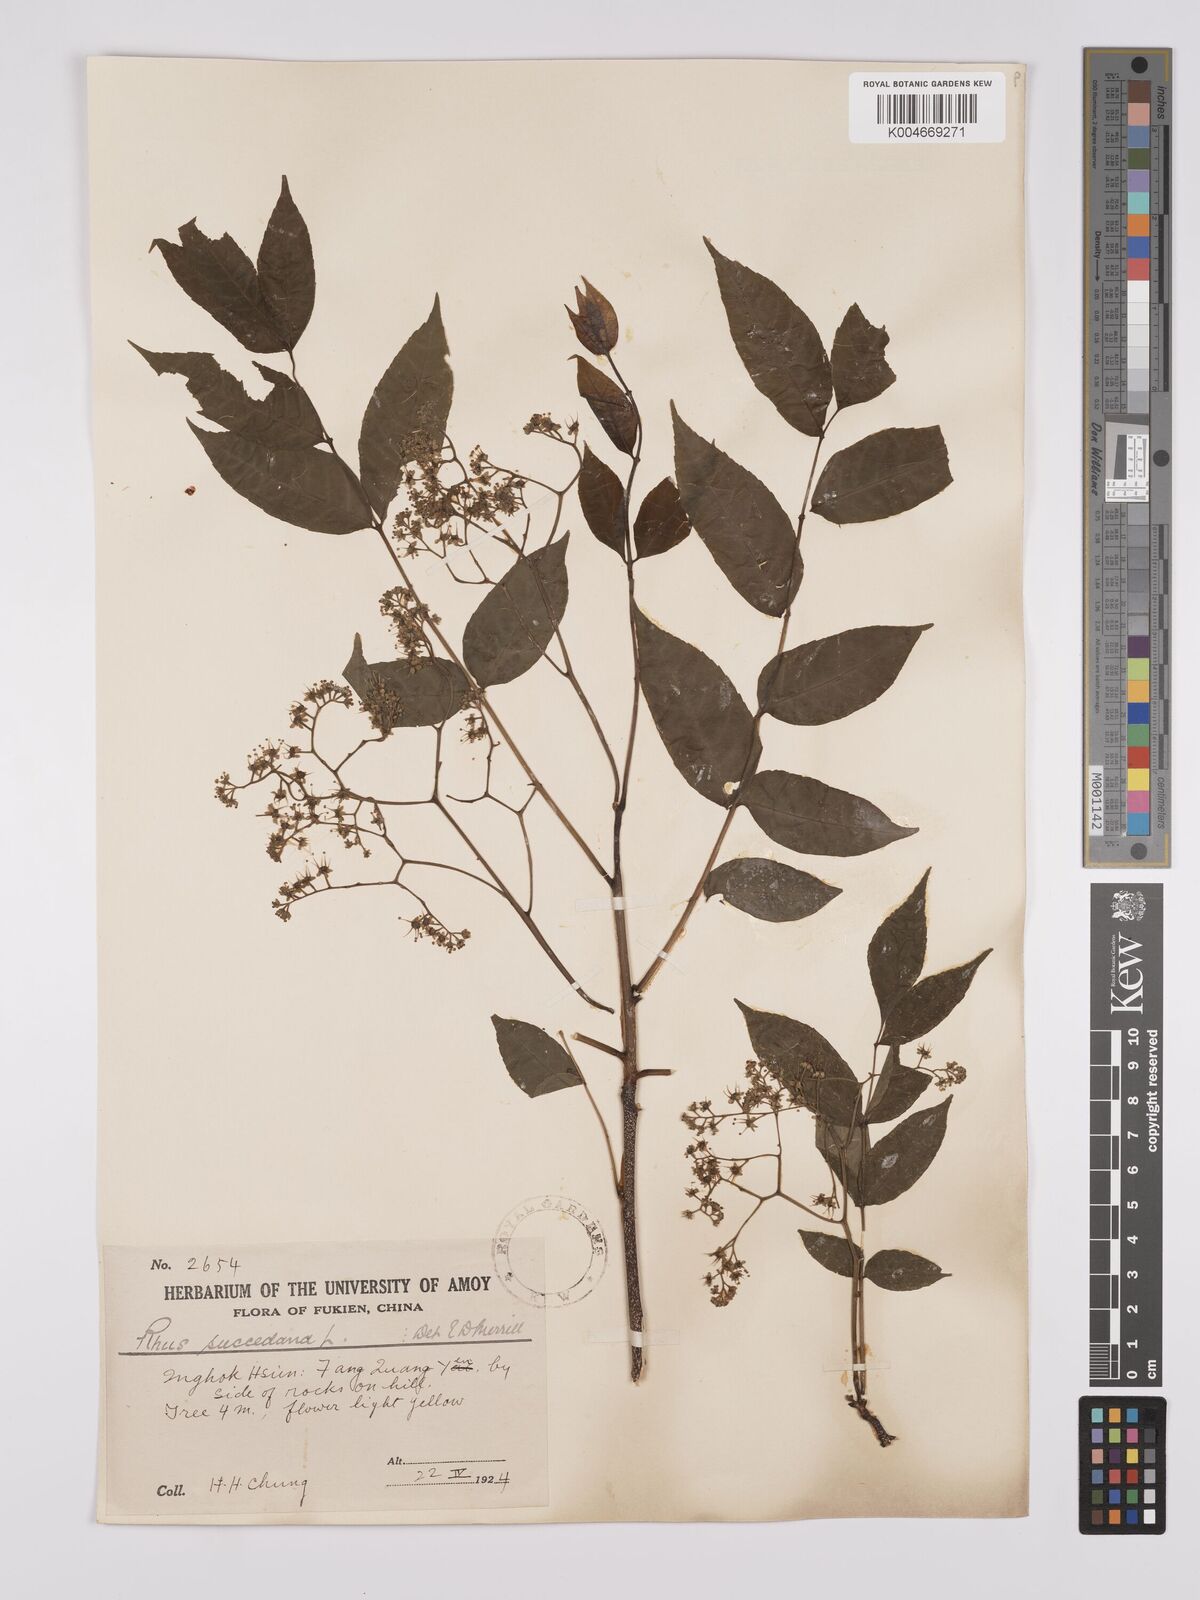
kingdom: Plantae
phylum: Tracheophyta
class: Magnoliopsida
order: Sapindales
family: Anacardiaceae
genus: Toxicodendron
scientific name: Toxicodendron succedaneum
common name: Wax tree
